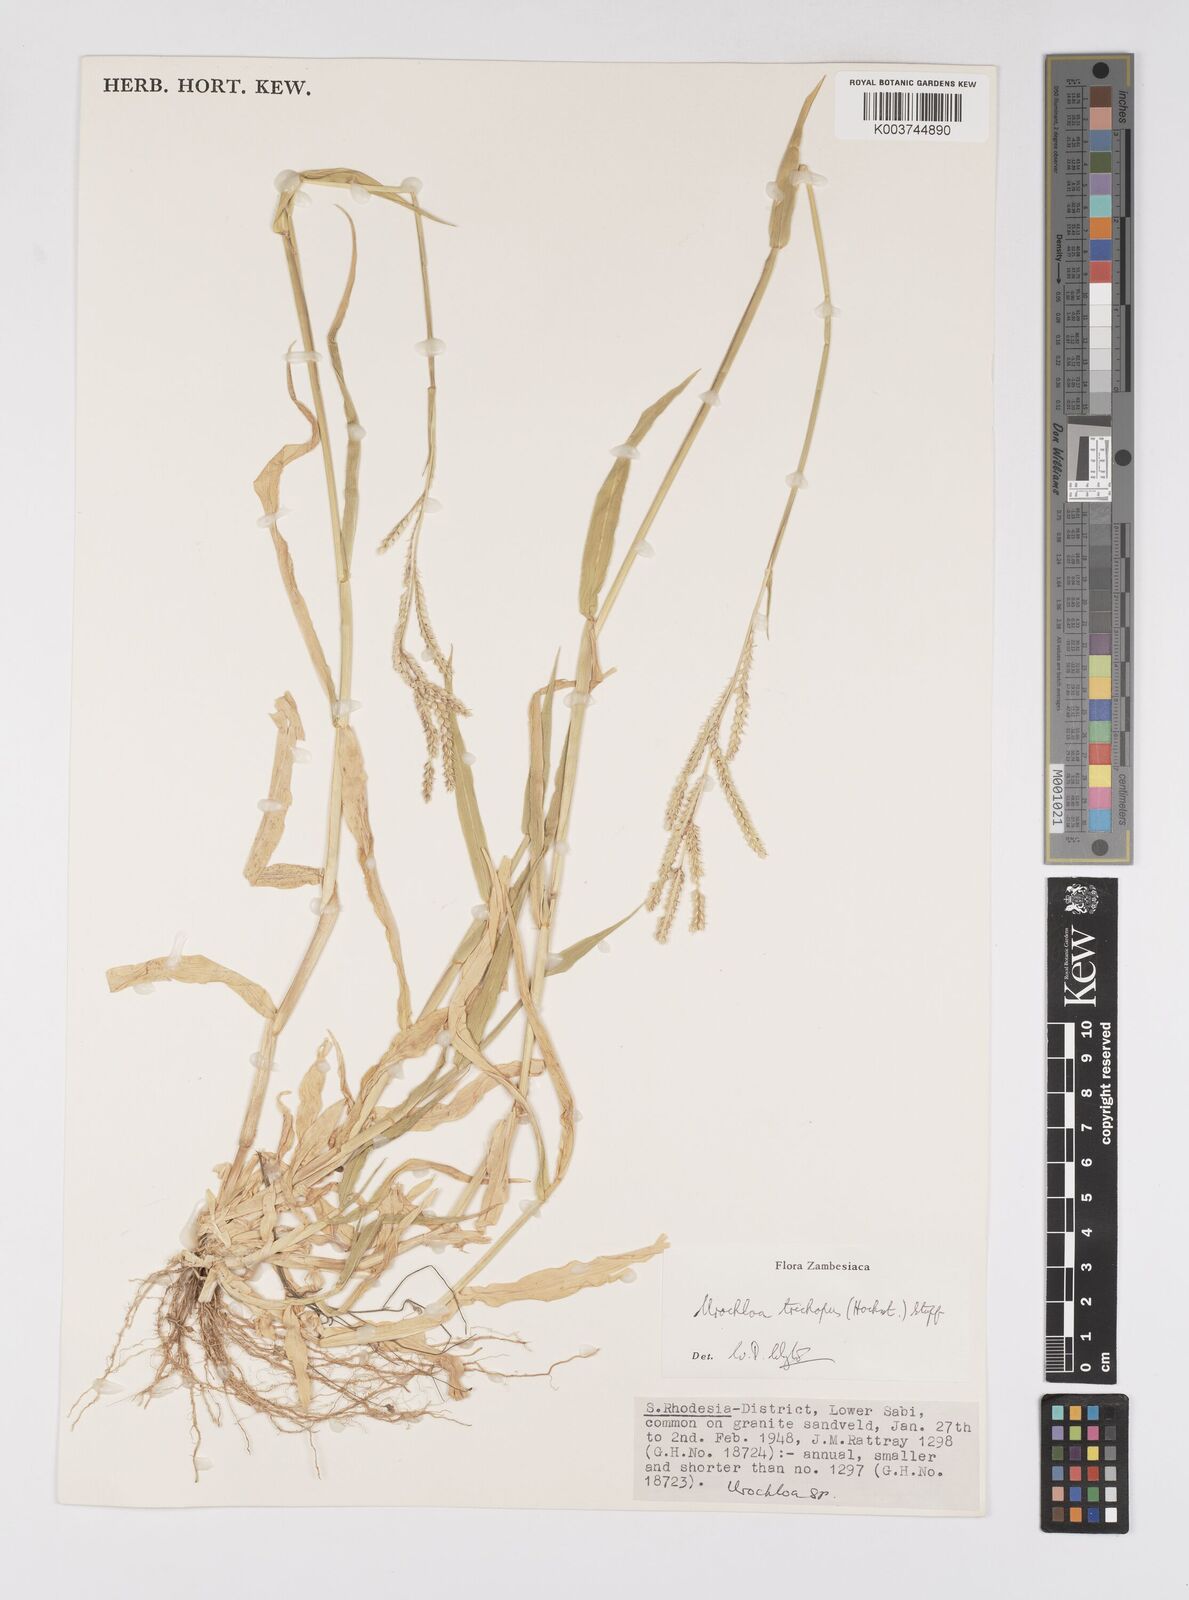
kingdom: Plantae
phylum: Tracheophyta
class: Liliopsida
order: Poales
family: Poaceae
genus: Urochloa
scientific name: Urochloa trichopus
